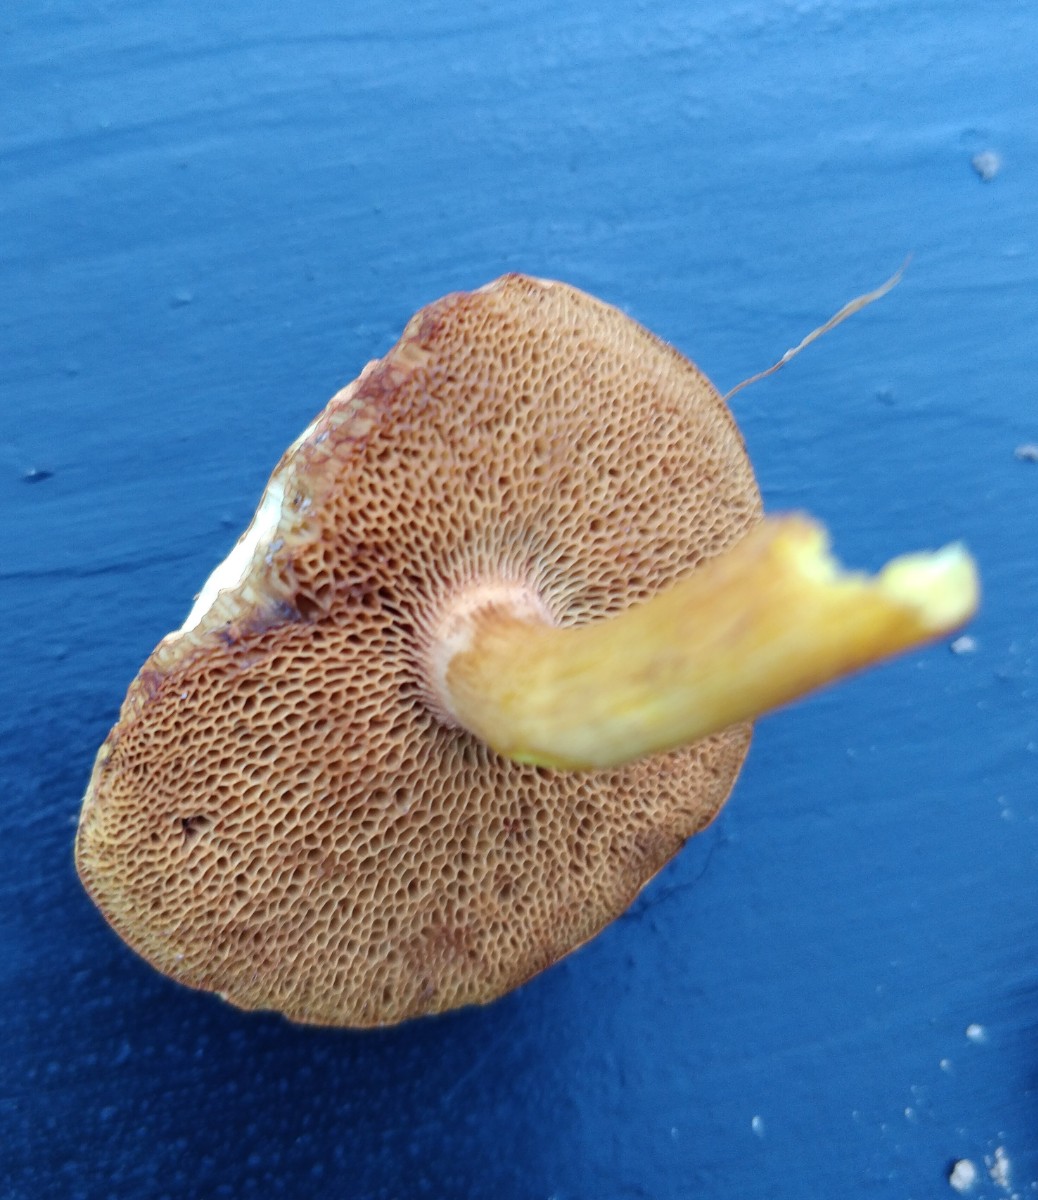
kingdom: Fungi
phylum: Basidiomycota
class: Agaricomycetes
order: Boletales
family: Boletaceae
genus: Chalciporus
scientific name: Chalciporus piperatus
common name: peberrørhat
